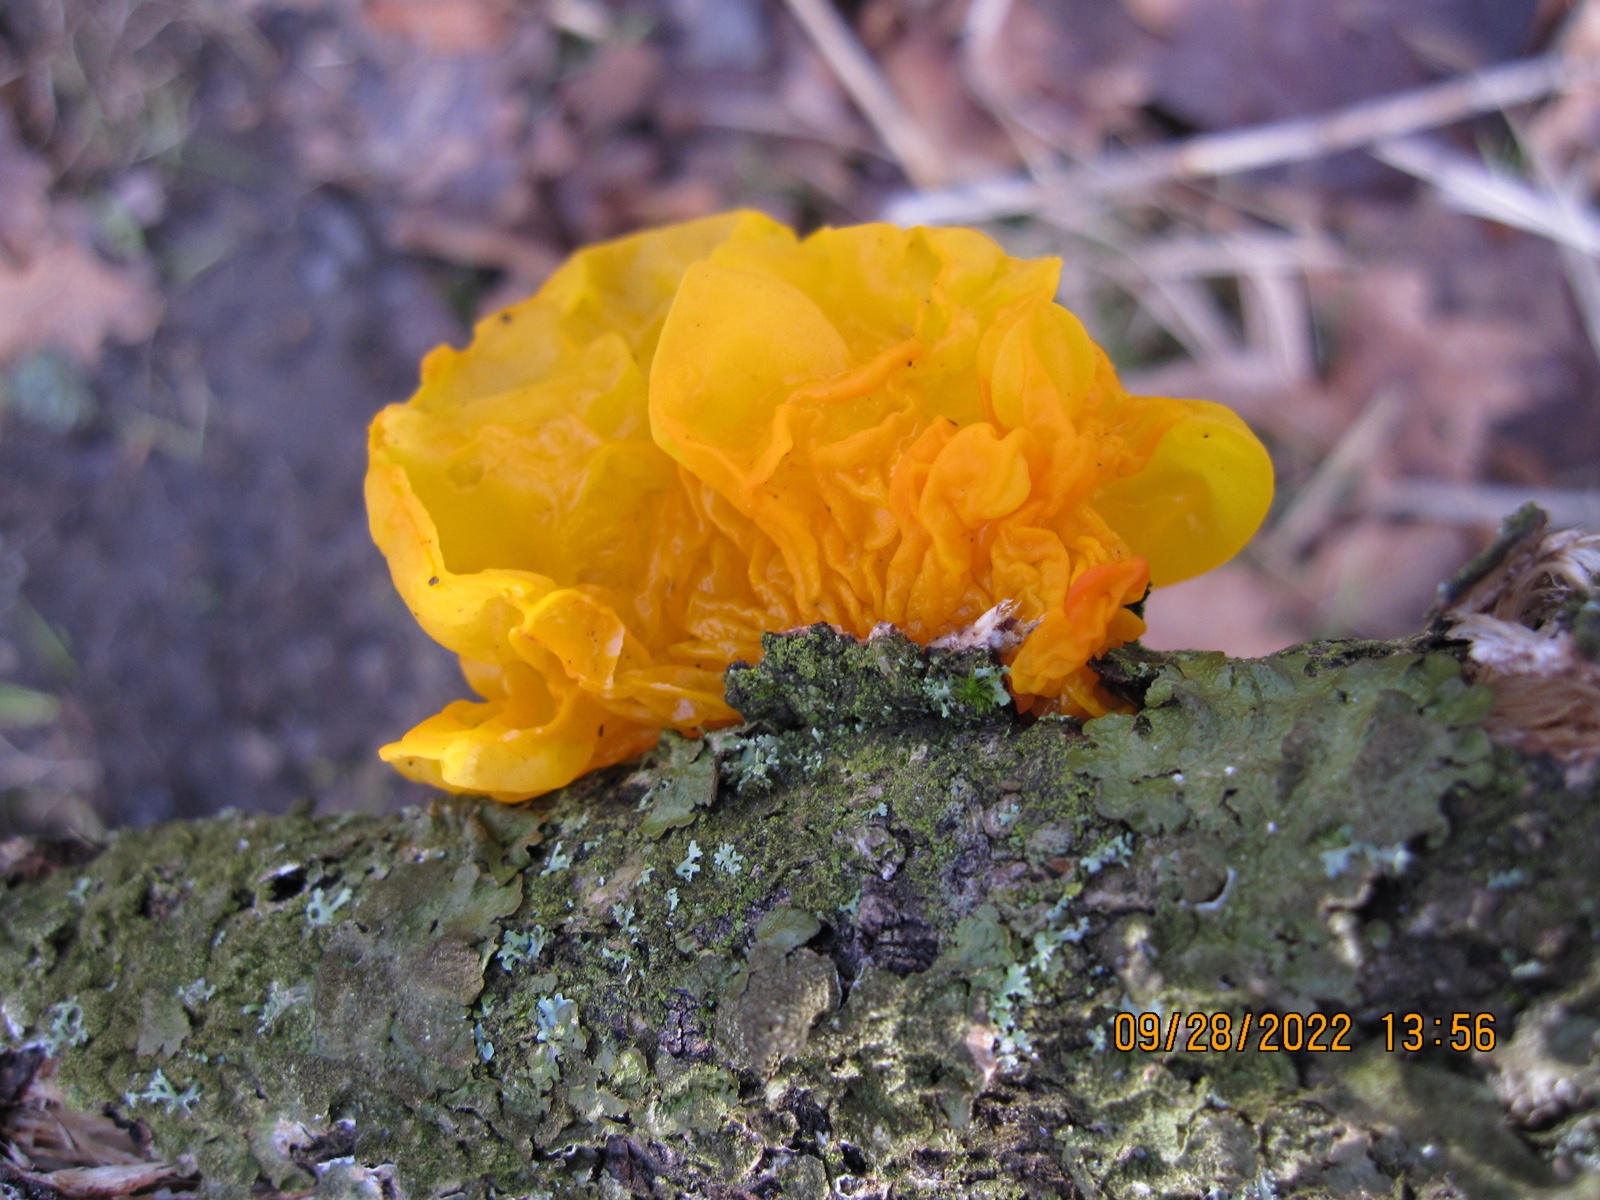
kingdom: Fungi
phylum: Basidiomycota
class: Tremellomycetes
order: Tremellales
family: Tremellaceae
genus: Tremella
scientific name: Tremella mesenterica
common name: gul bævresvamp
